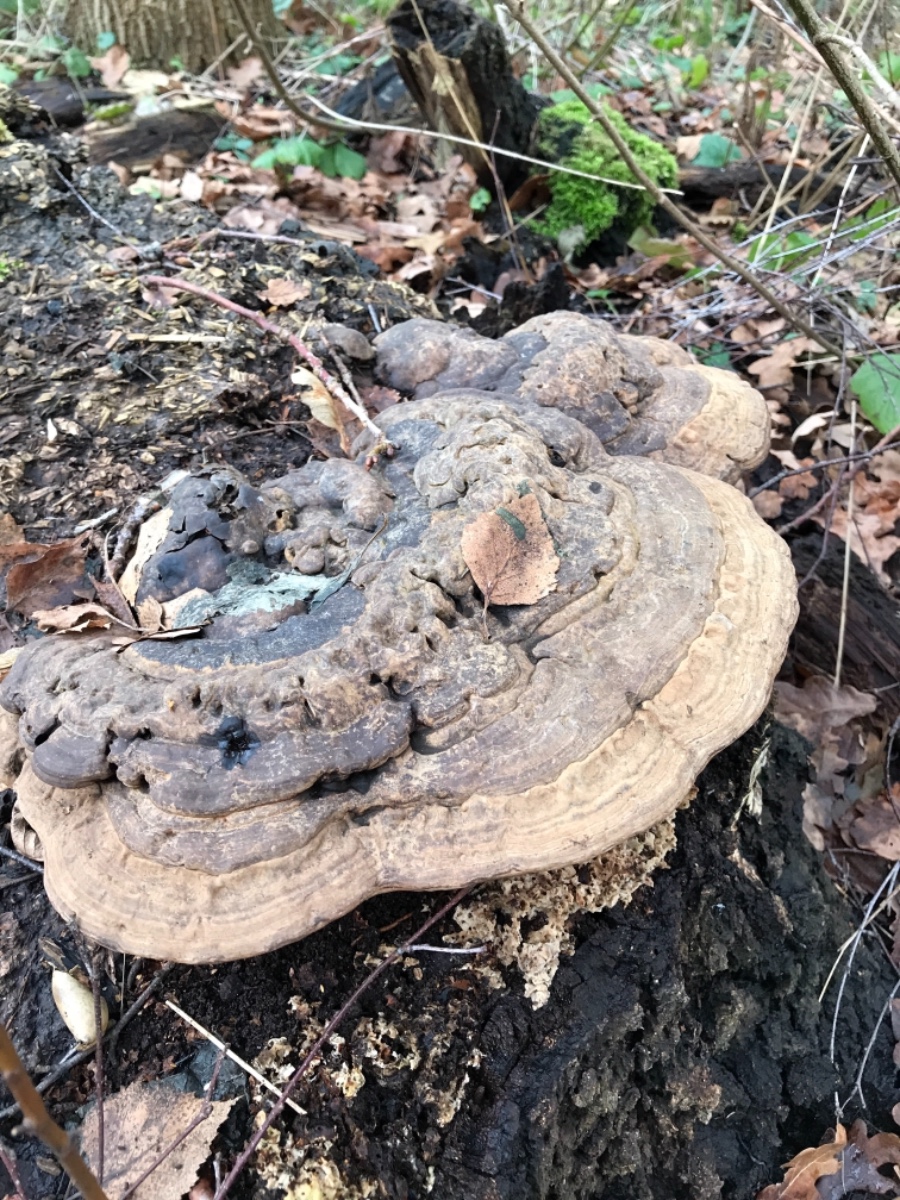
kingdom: Fungi
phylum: Basidiomycota
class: Agaricomycetes
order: Polyporales
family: Polyporaceae
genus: Ganoderma
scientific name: Ganoderma applanatum
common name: flad lakporesvamp
